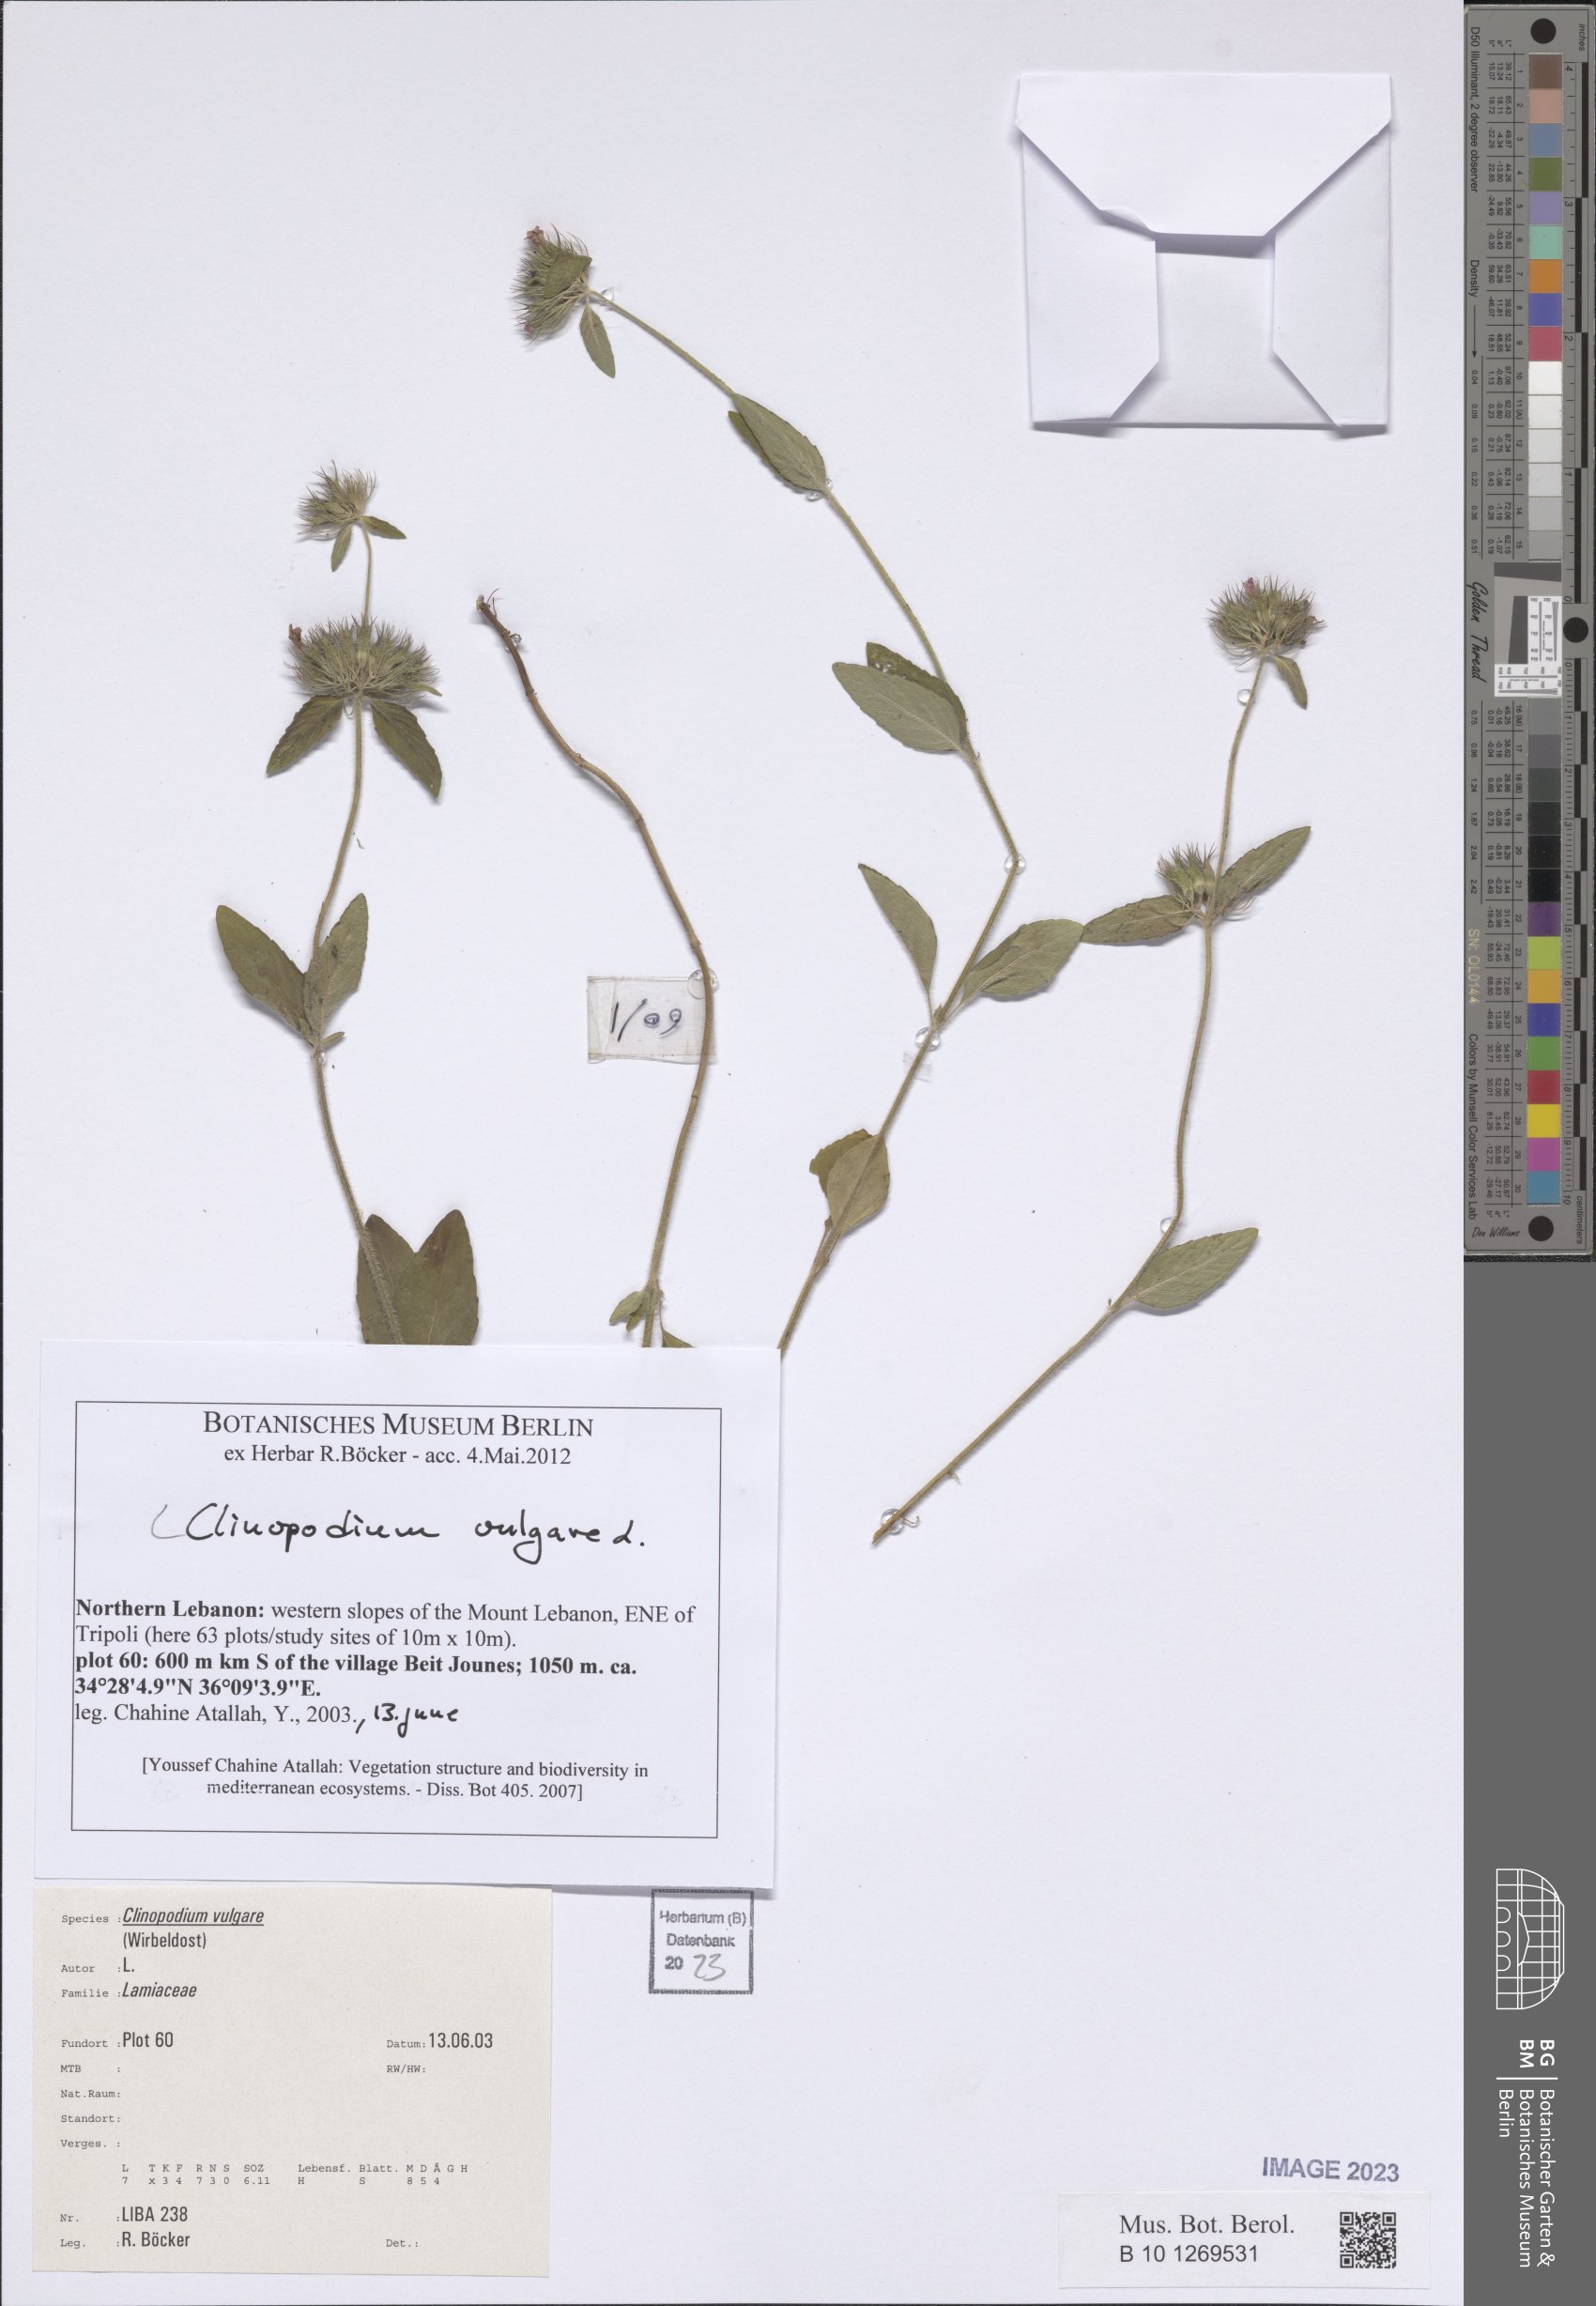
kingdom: Plantae
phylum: Tracheophyta
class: Magnoliopsida
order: Lamiales
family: Lamiaceae
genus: Clinopodium
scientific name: Clinopodium vulgare
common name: Wild basil
